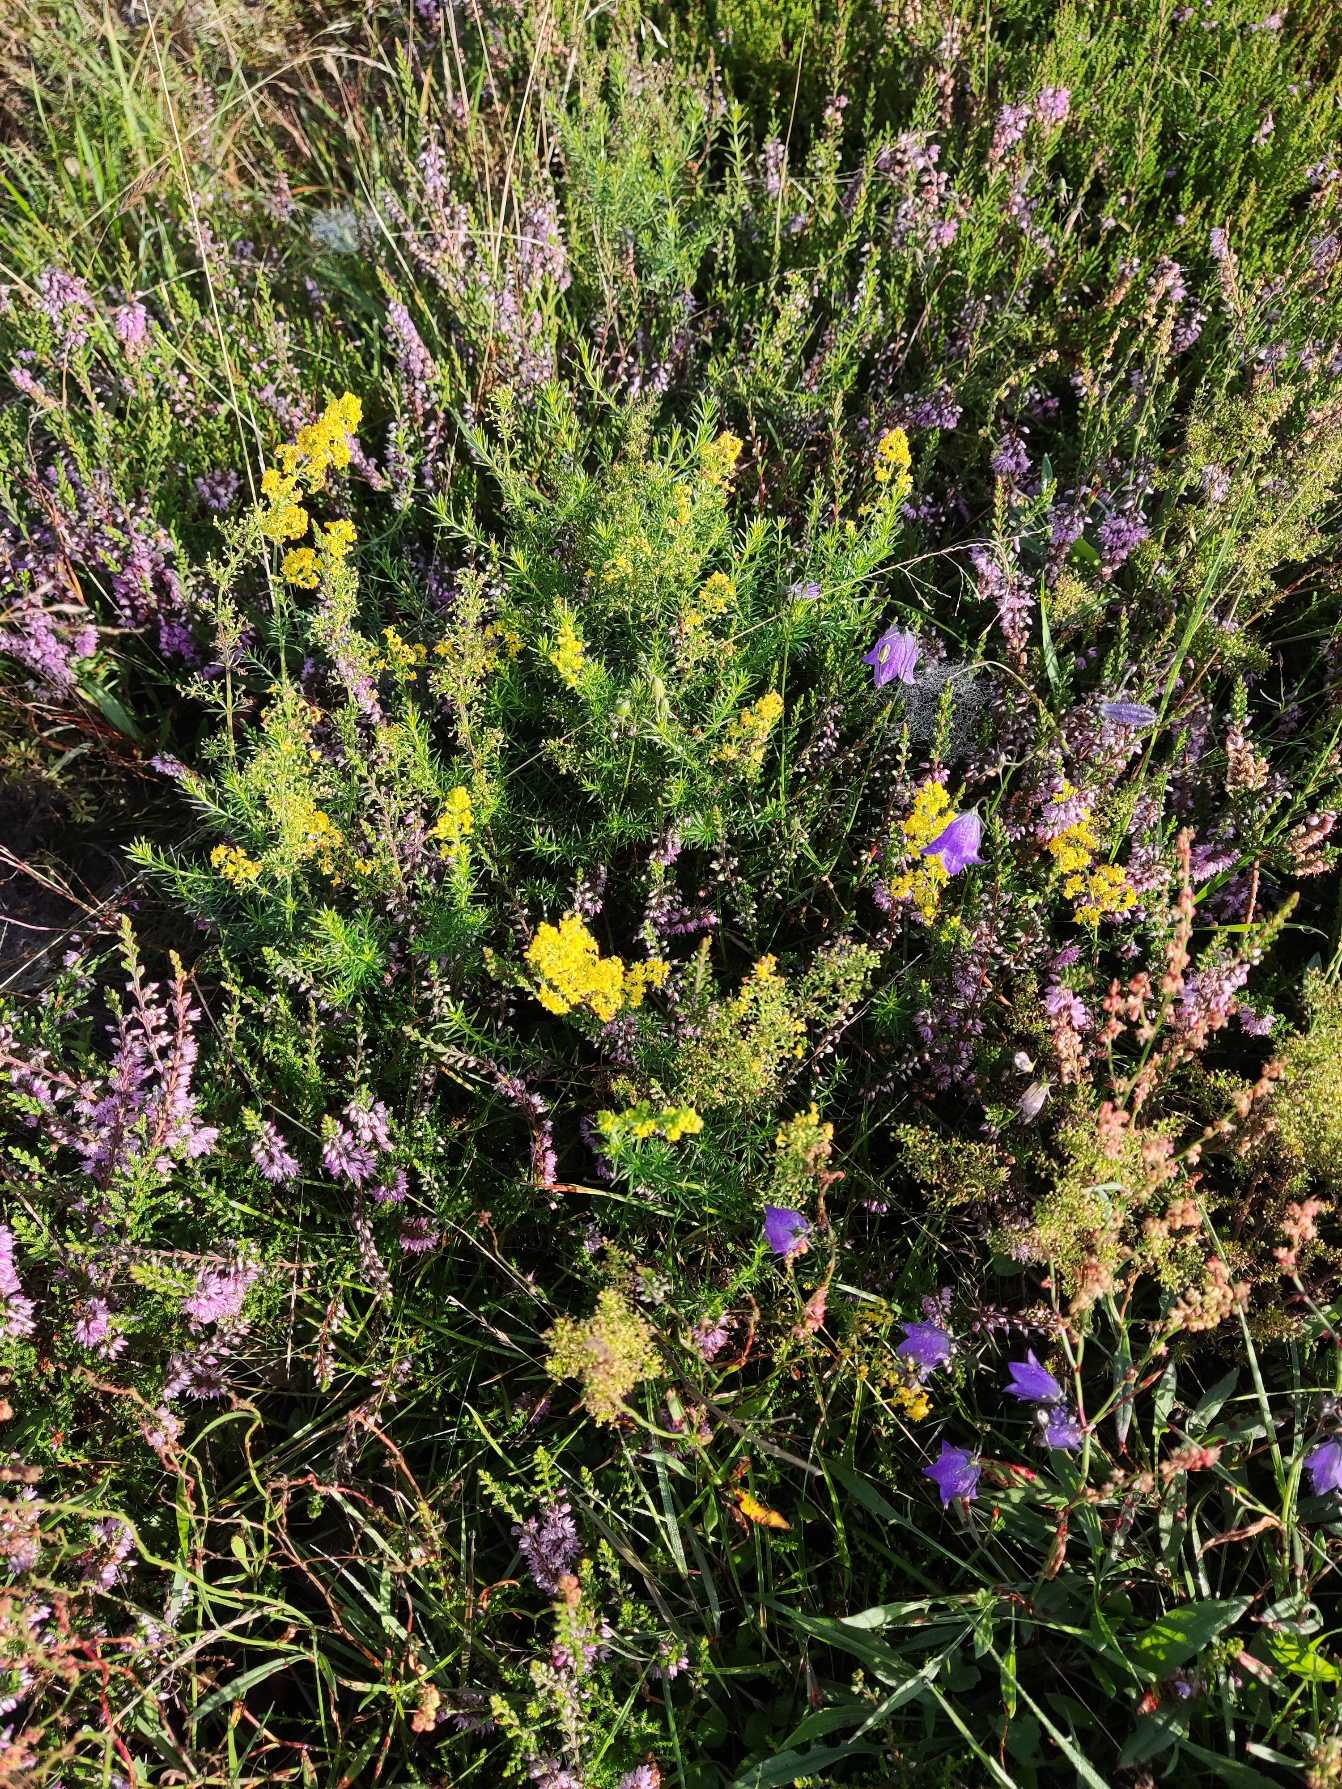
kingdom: Plantae
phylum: Tracheophyta
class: Magnoliopsida
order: Gentianales
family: Rubiaceae
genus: Galium
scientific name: Galium verum
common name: Gul snerre
